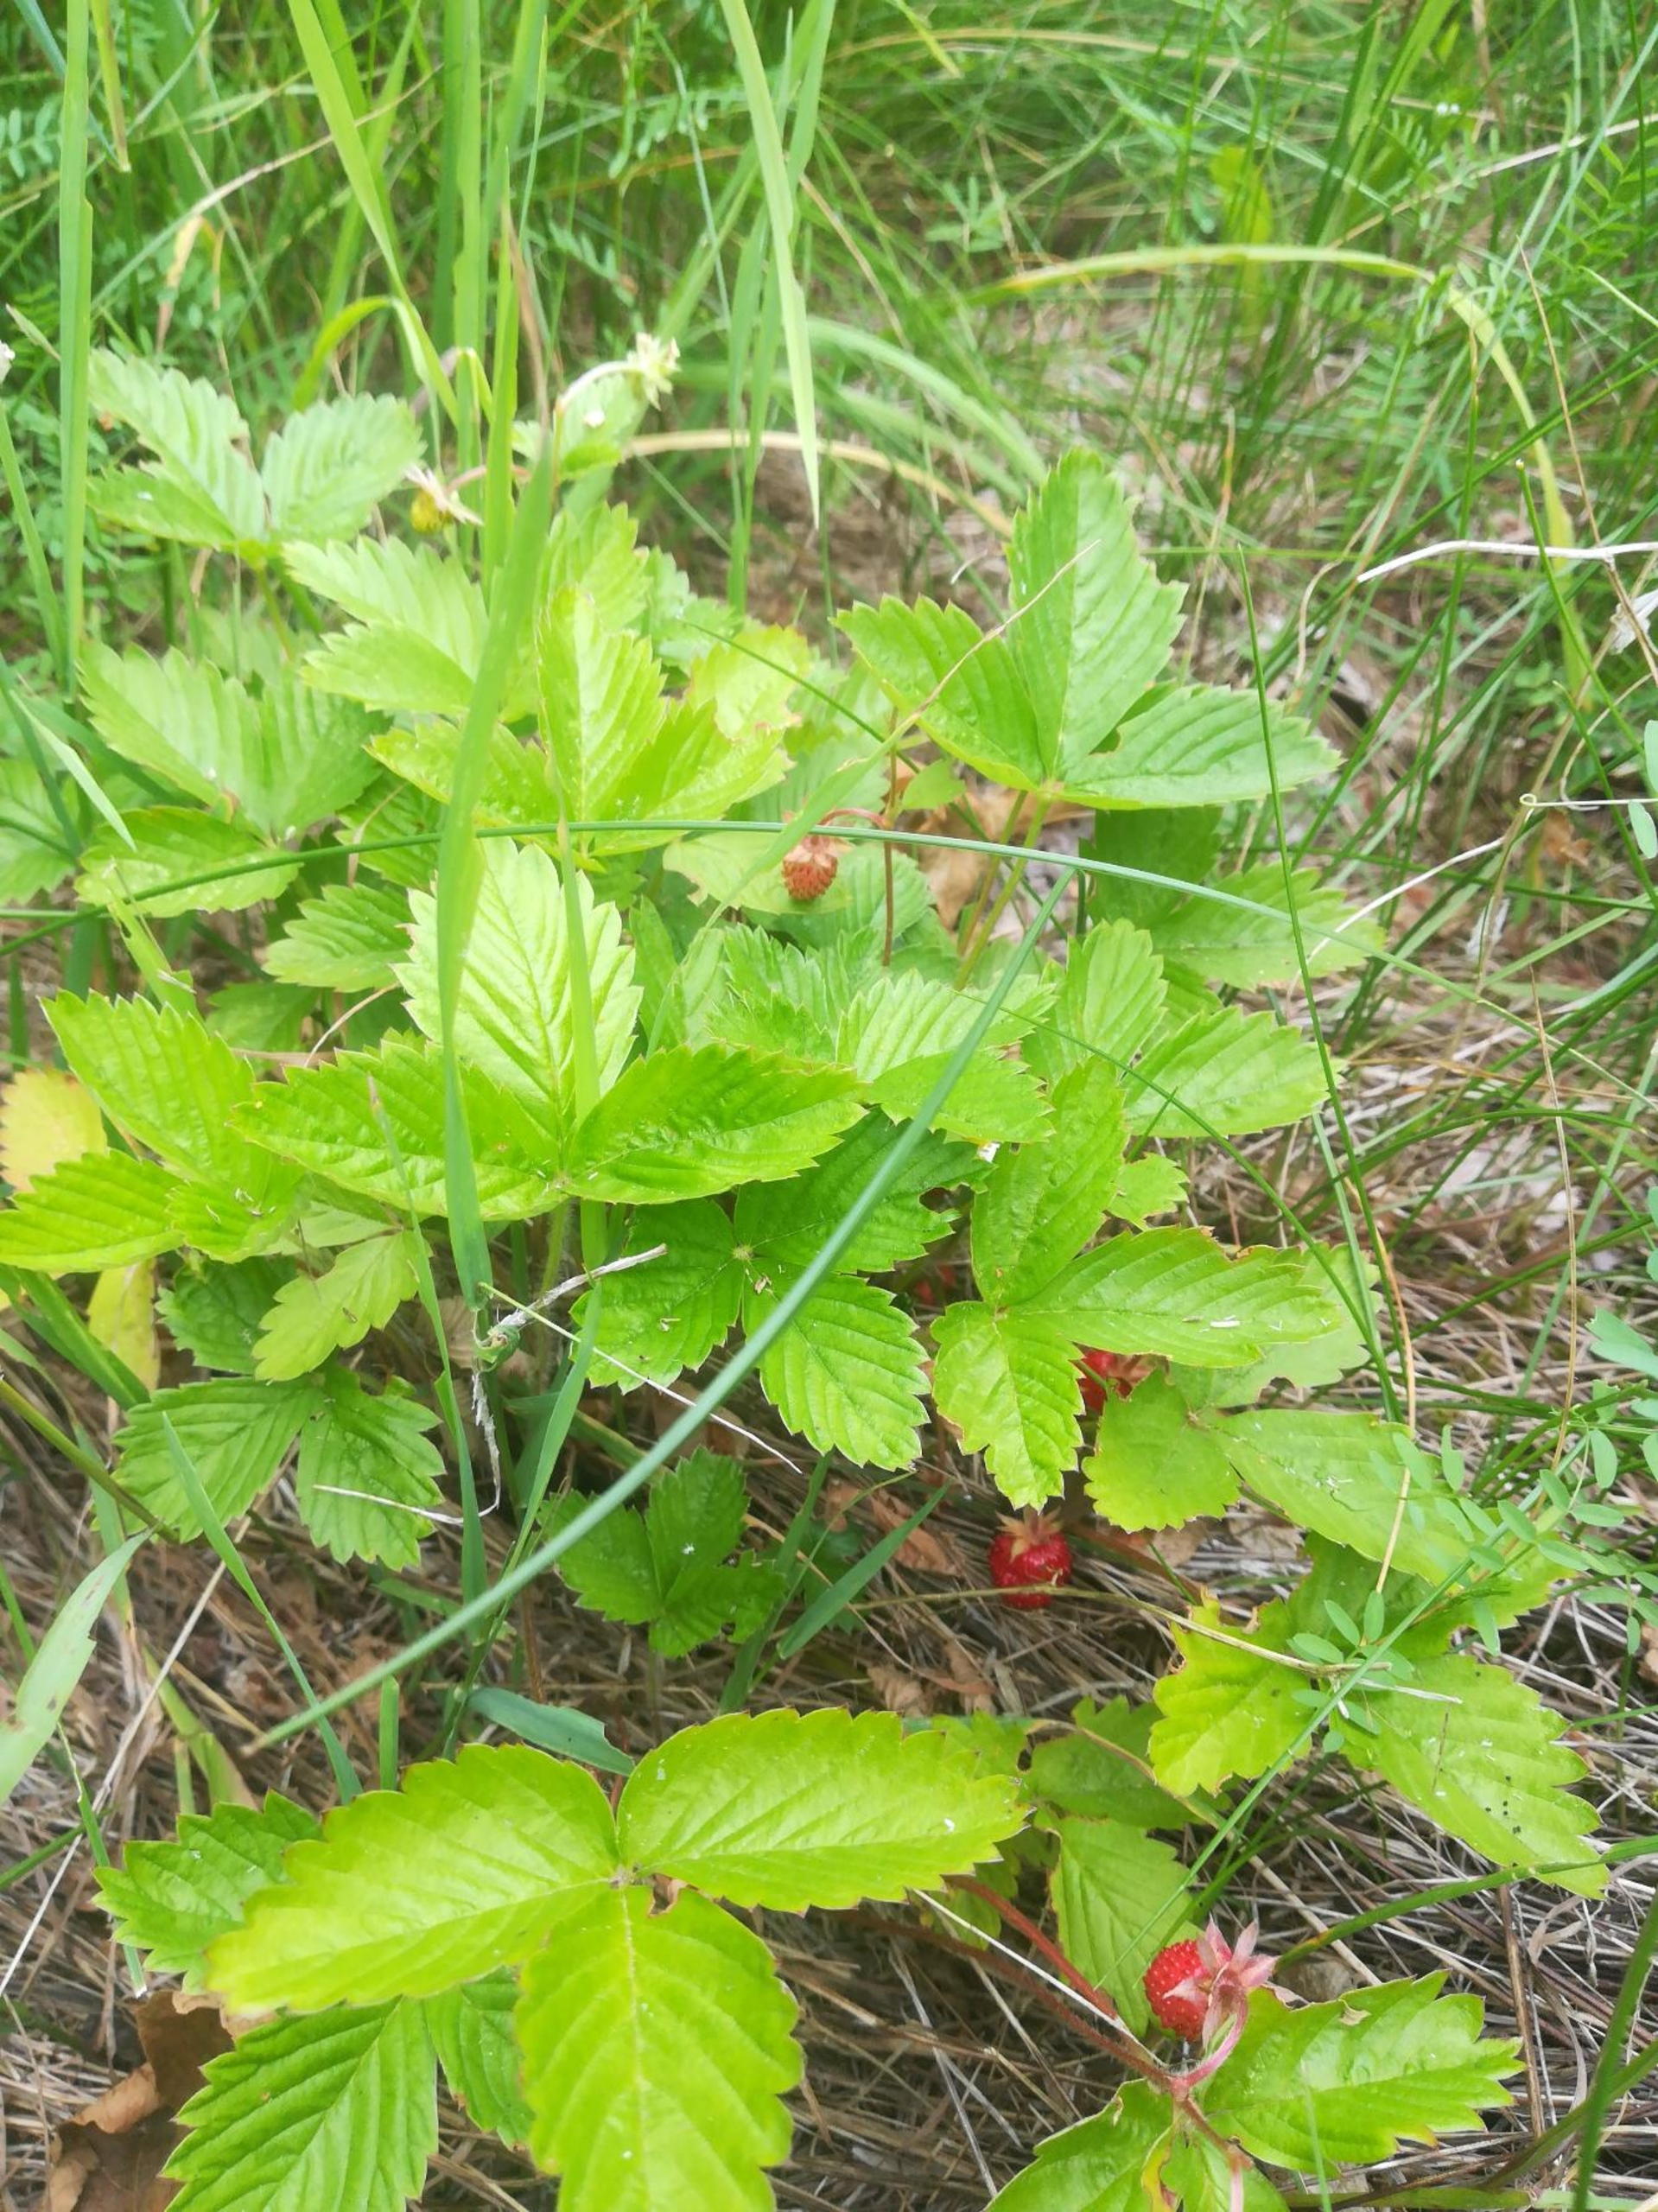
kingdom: Plantae
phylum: Tracheophyta
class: Magnoliopsida
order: Rosales
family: Rosaceae
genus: Fragaria
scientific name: Fragaria vesca
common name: Skov-jordbær
